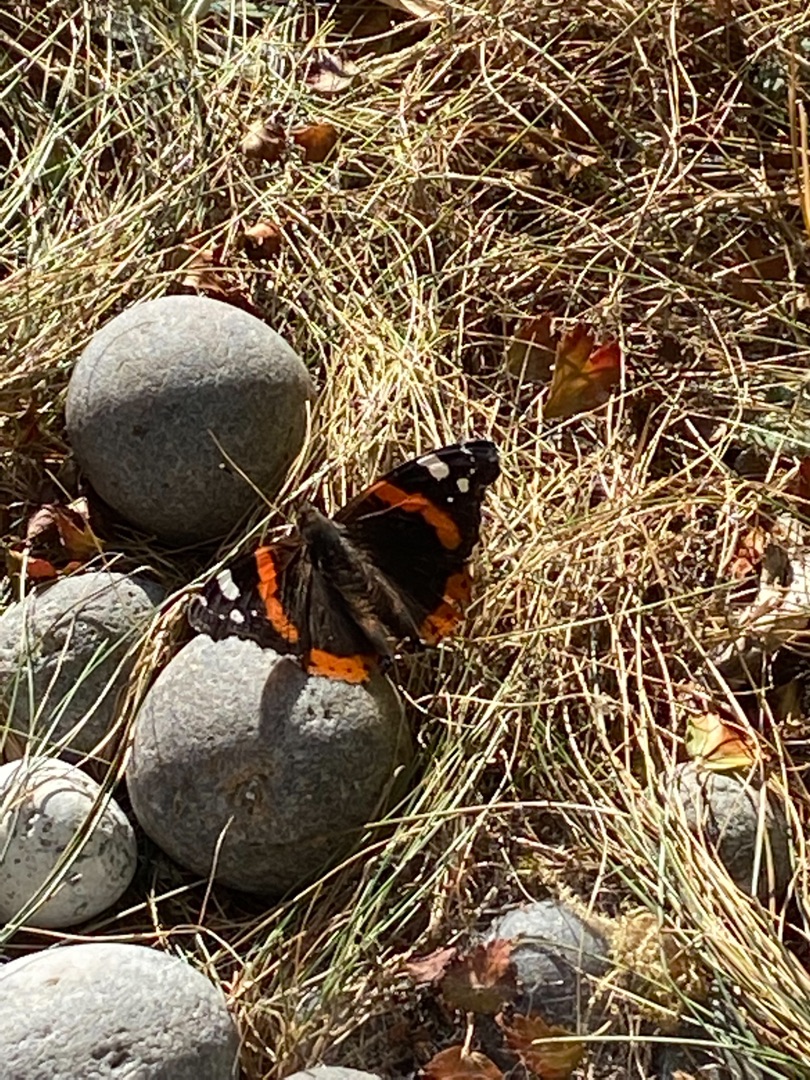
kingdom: Animalia
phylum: Arthropoda
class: Insecta
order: Lepidoptera
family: Nymphalidae
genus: Vanessa
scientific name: Vanessa atalanta
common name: Admiral
